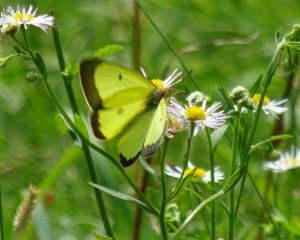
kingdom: Animalia
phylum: Arthropoda
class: Insecta
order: Lepidoptera
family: Pieridae
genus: Colias
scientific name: Colias philodice
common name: Clouded Sulphur
